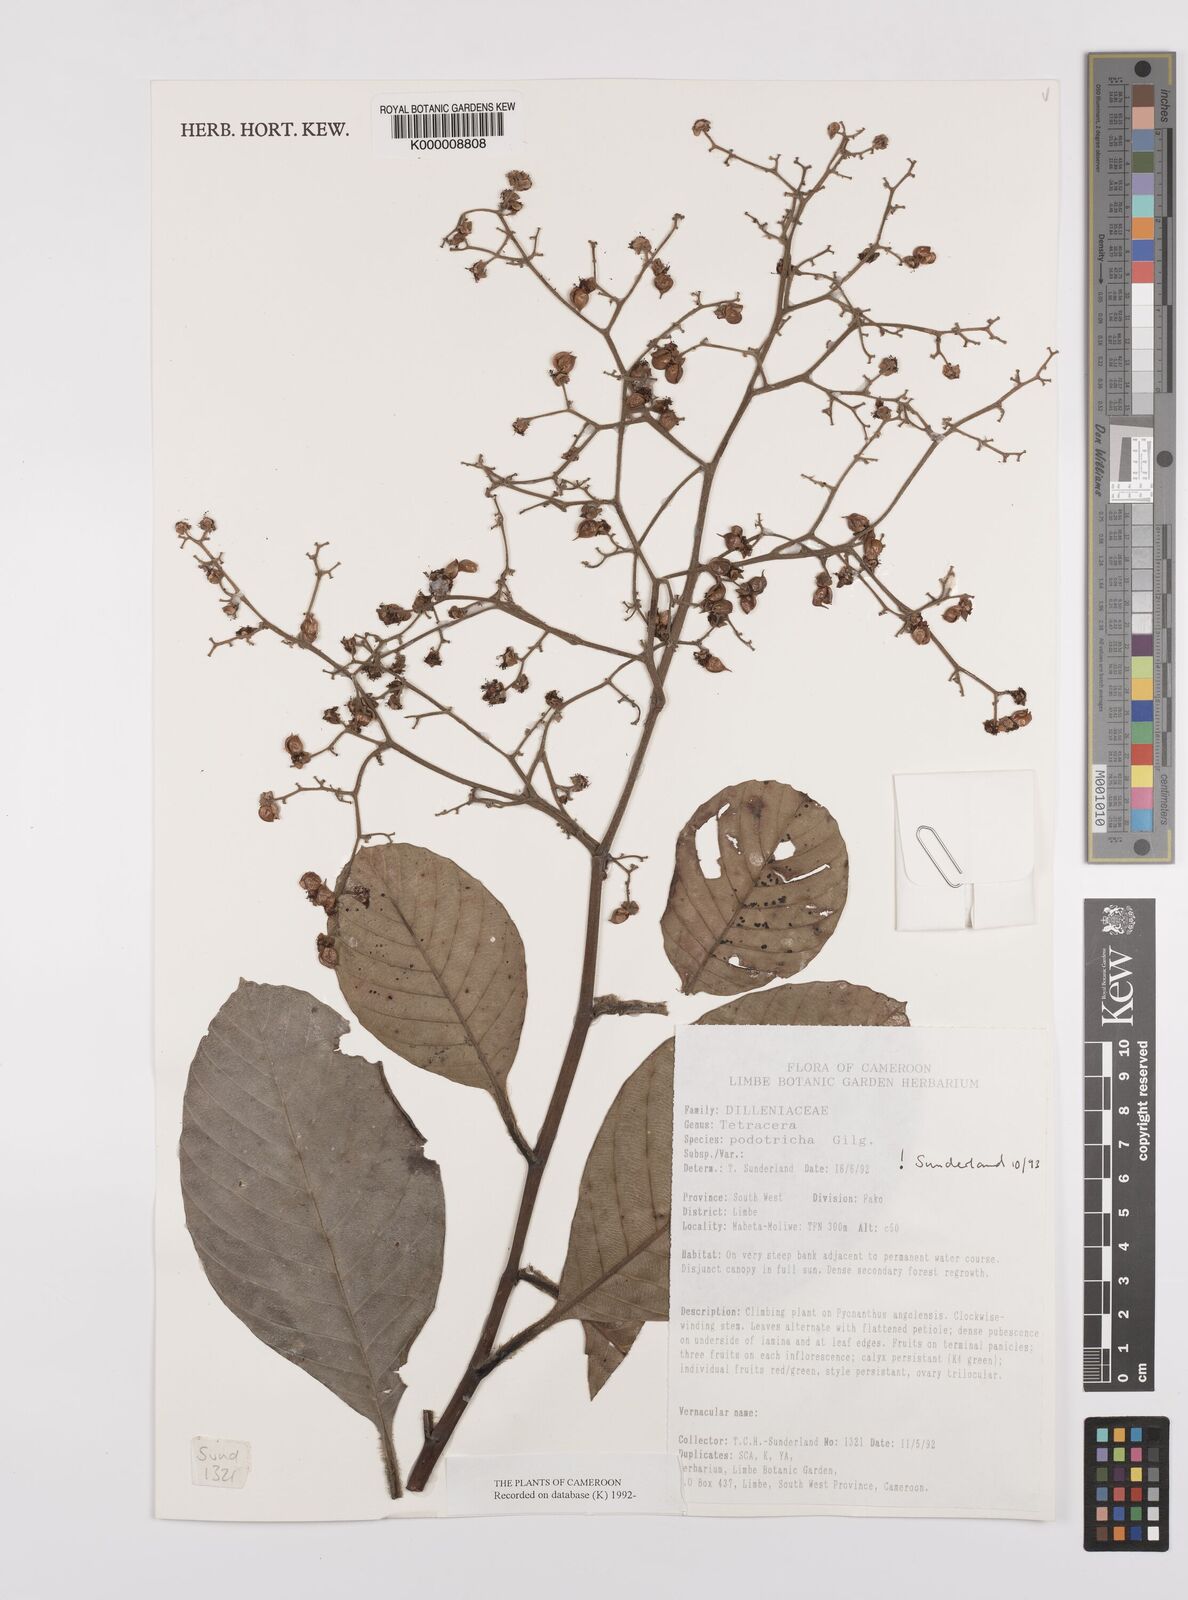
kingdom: Plantae
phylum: Tracheophyta
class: Magnoliopsida
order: Dilleniales
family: Dilleniaceae
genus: Tetracera
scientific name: Tetracera alnifolia
